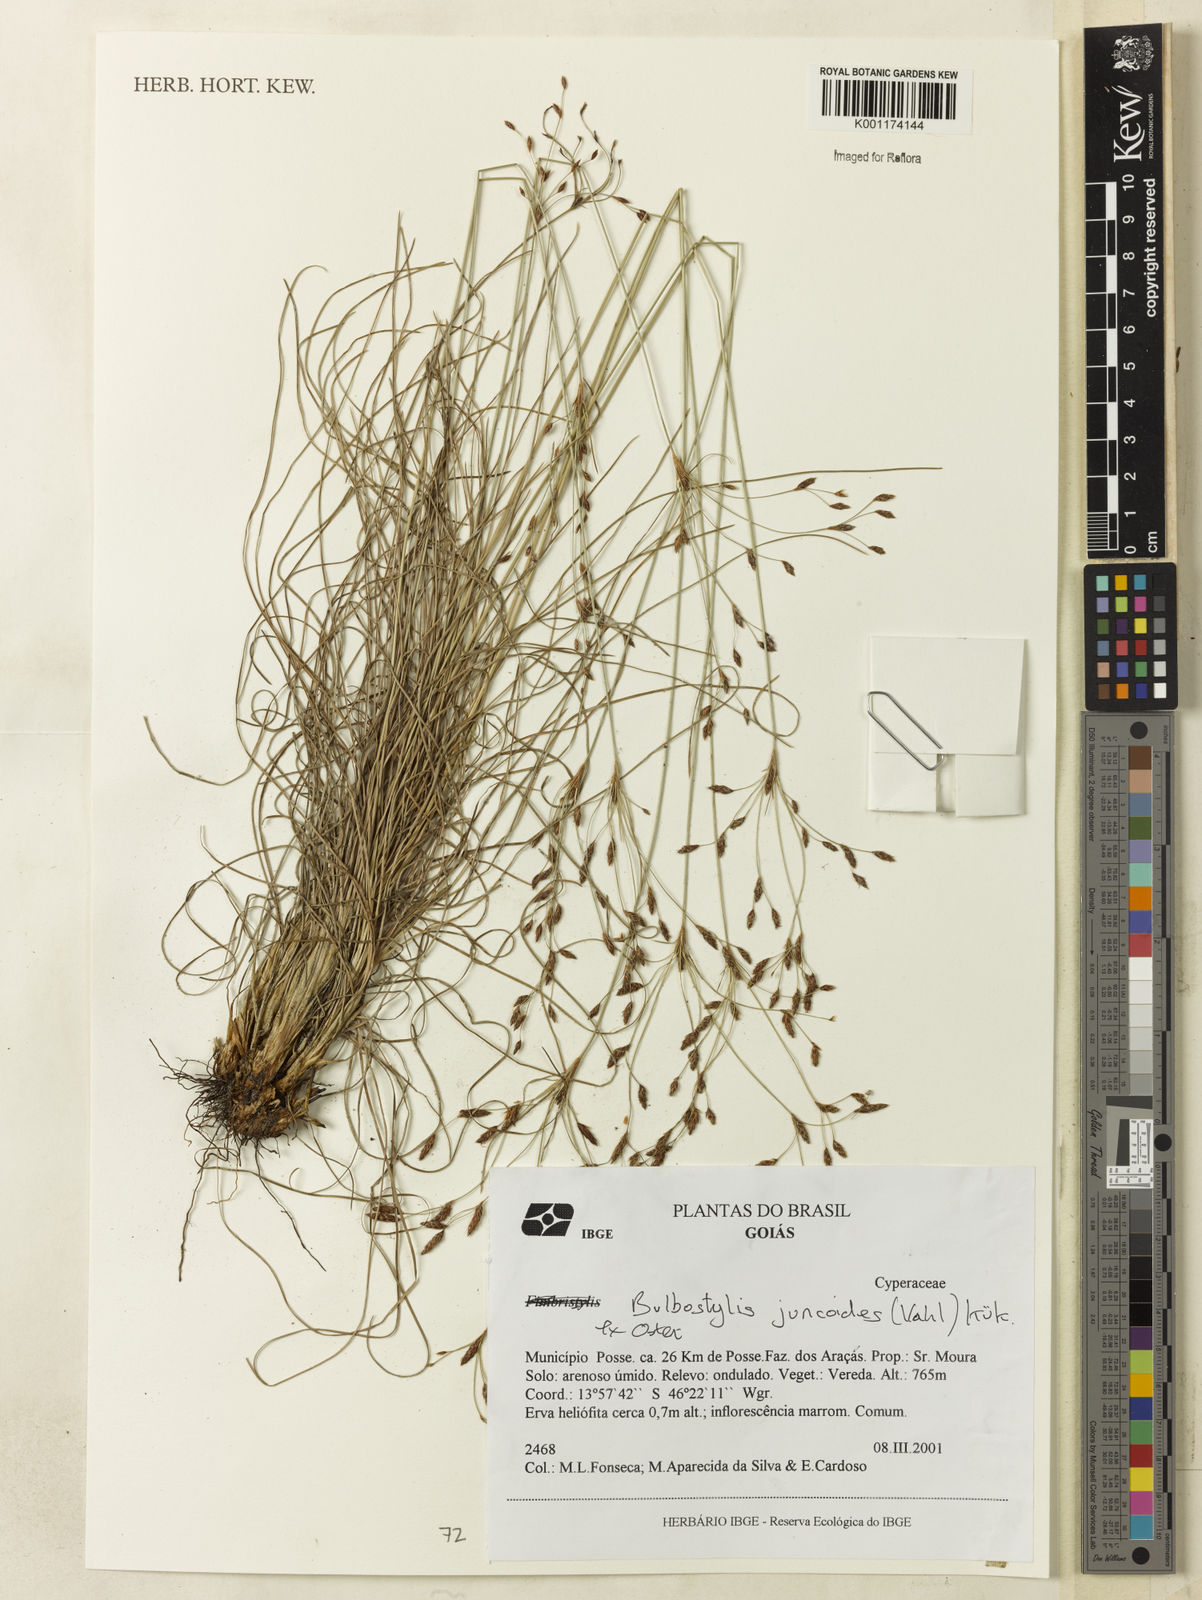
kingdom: Plantae
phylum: Tracheophyta
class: Liliopsida
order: Poales
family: Cyperaceae
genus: Bulbostylis
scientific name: Bulbostylis juncoides
